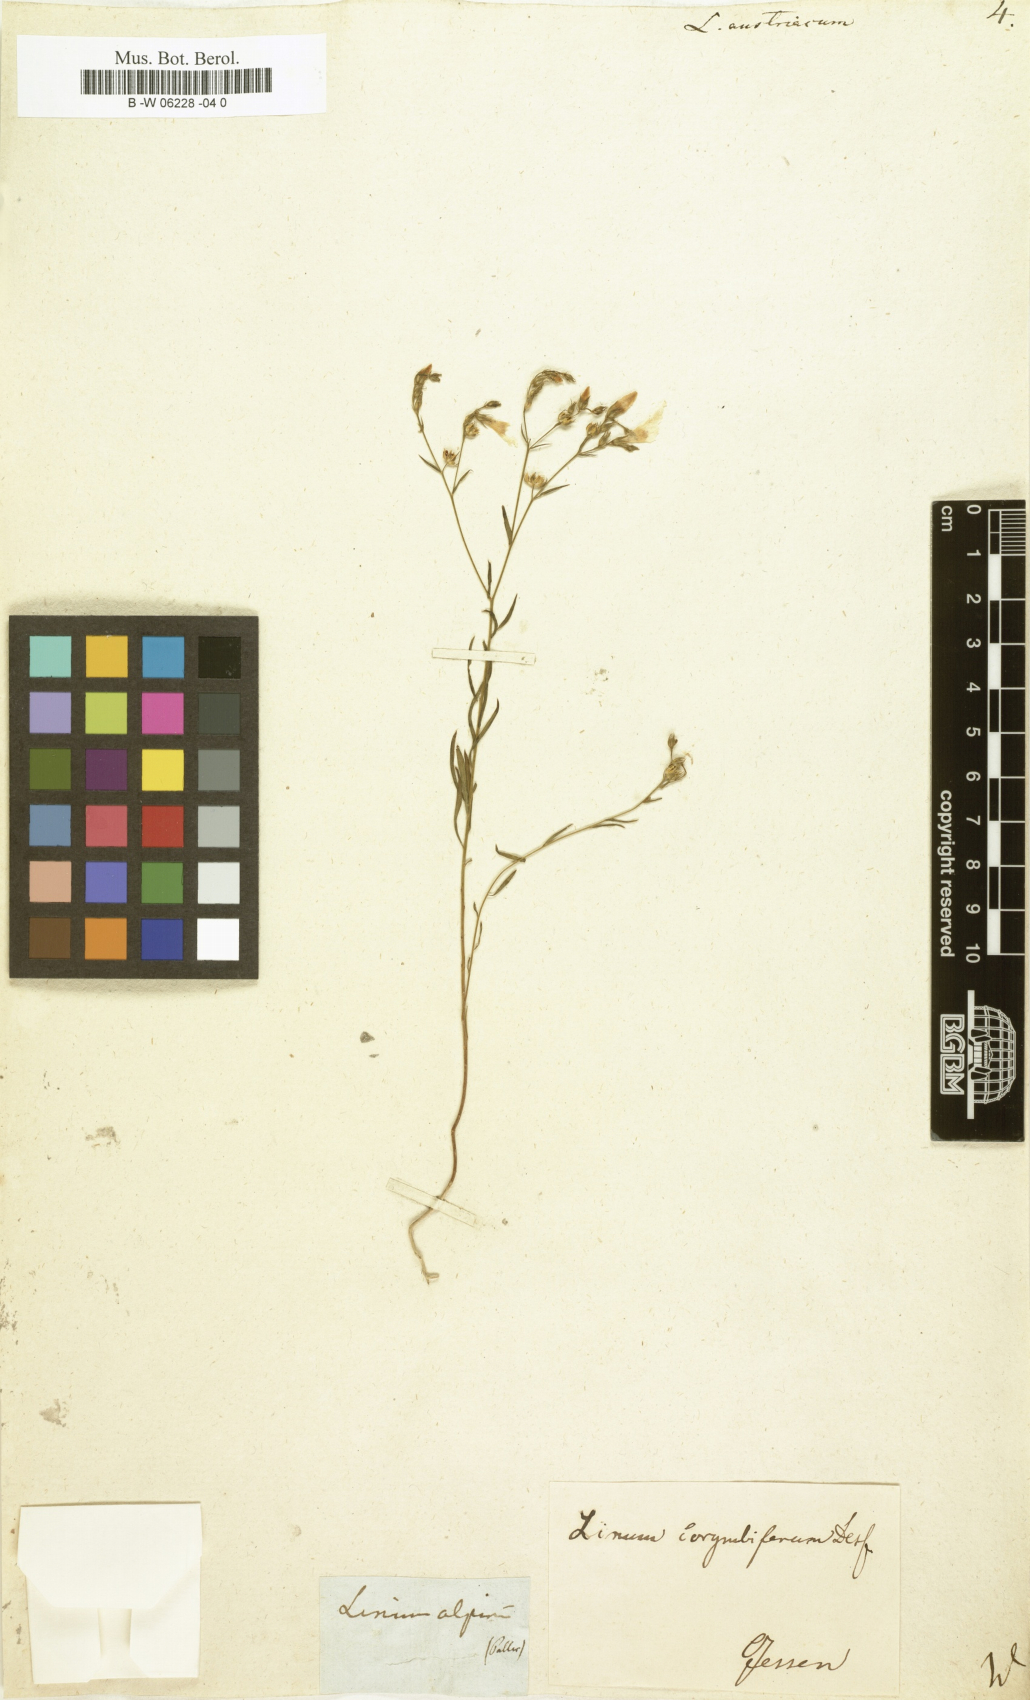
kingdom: Plantae
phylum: Tracheophyta
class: Magnoliopsida
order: Malpighiales
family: Linaceae
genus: Linum
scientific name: Linum austriacum
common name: Austrian flax
